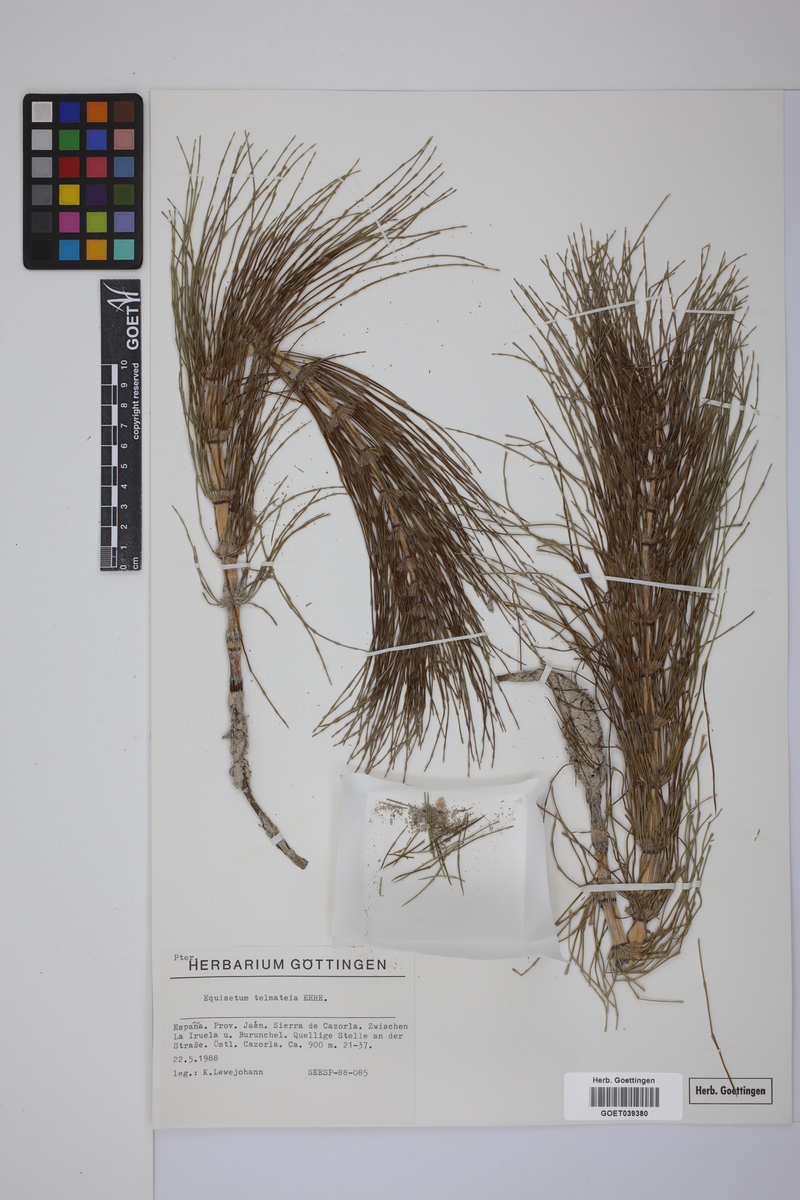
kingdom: Plantae
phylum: Tracheophyta
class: Polypodiopsida
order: Equisetales
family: Equisetaceae
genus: Equisetum
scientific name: Equisetum telmateia
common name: Great horsetail
